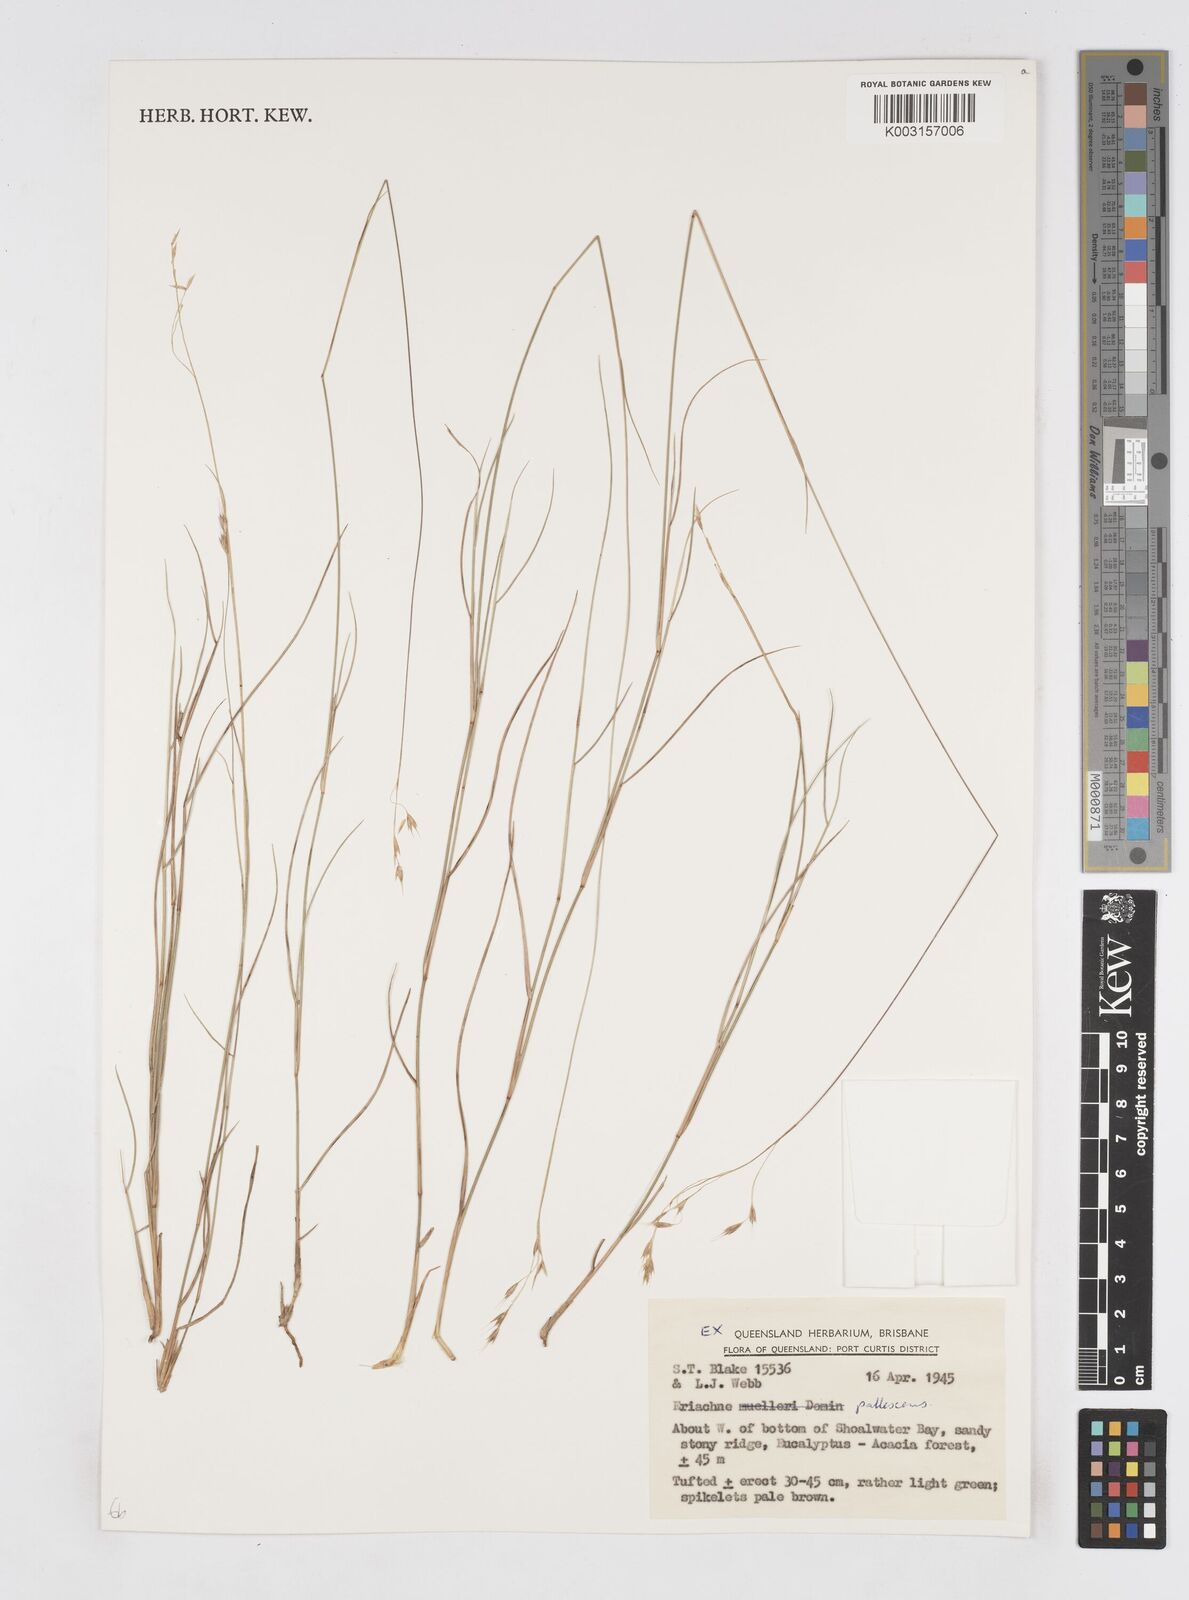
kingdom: Plantae
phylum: Tracheophyta
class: Liliopsida
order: Poales
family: Poaceae
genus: Eriachne
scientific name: Eriachne pallescens
